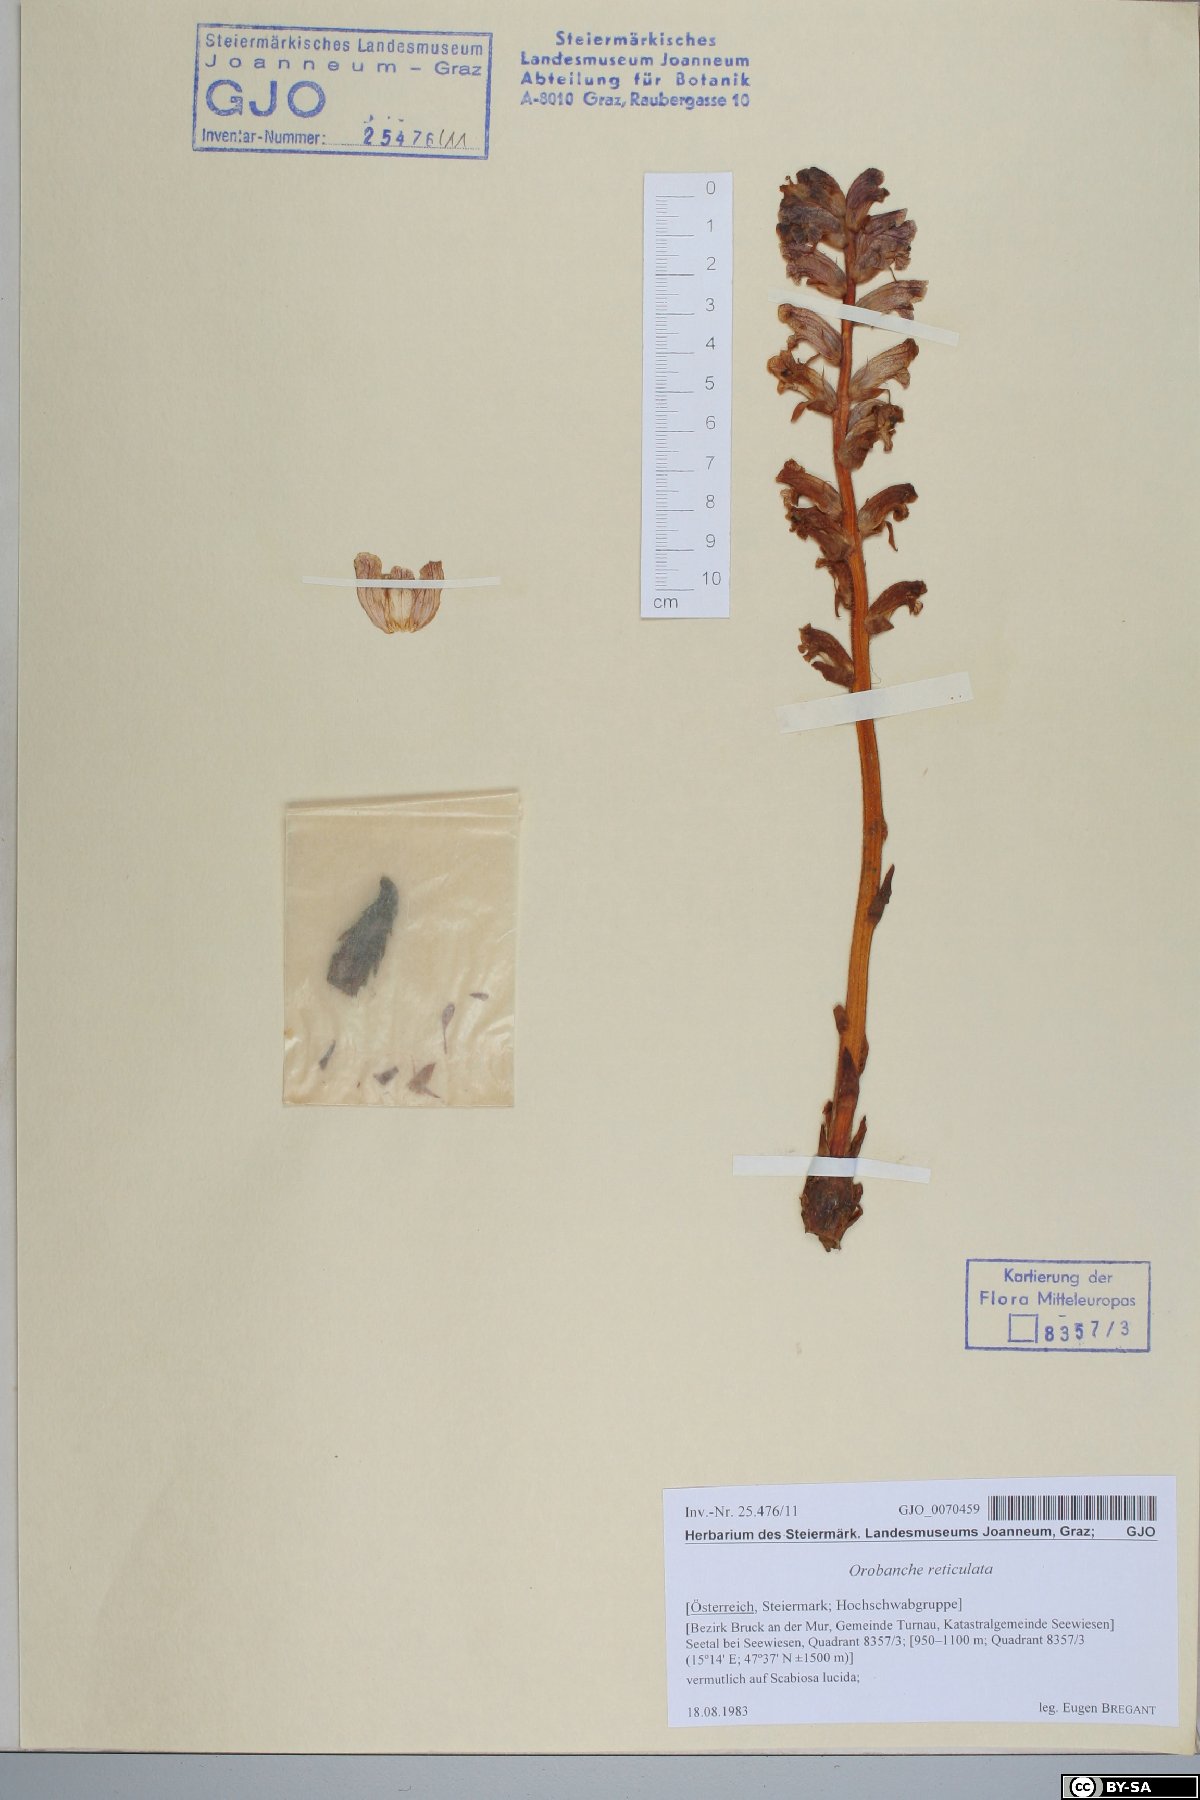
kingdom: Plantae
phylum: Tracheophyta
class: Magnoliopsida
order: Lamiales
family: Orobanchaceae
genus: Orobanche
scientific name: Orobanche reticulata
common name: Thistle broomrape
